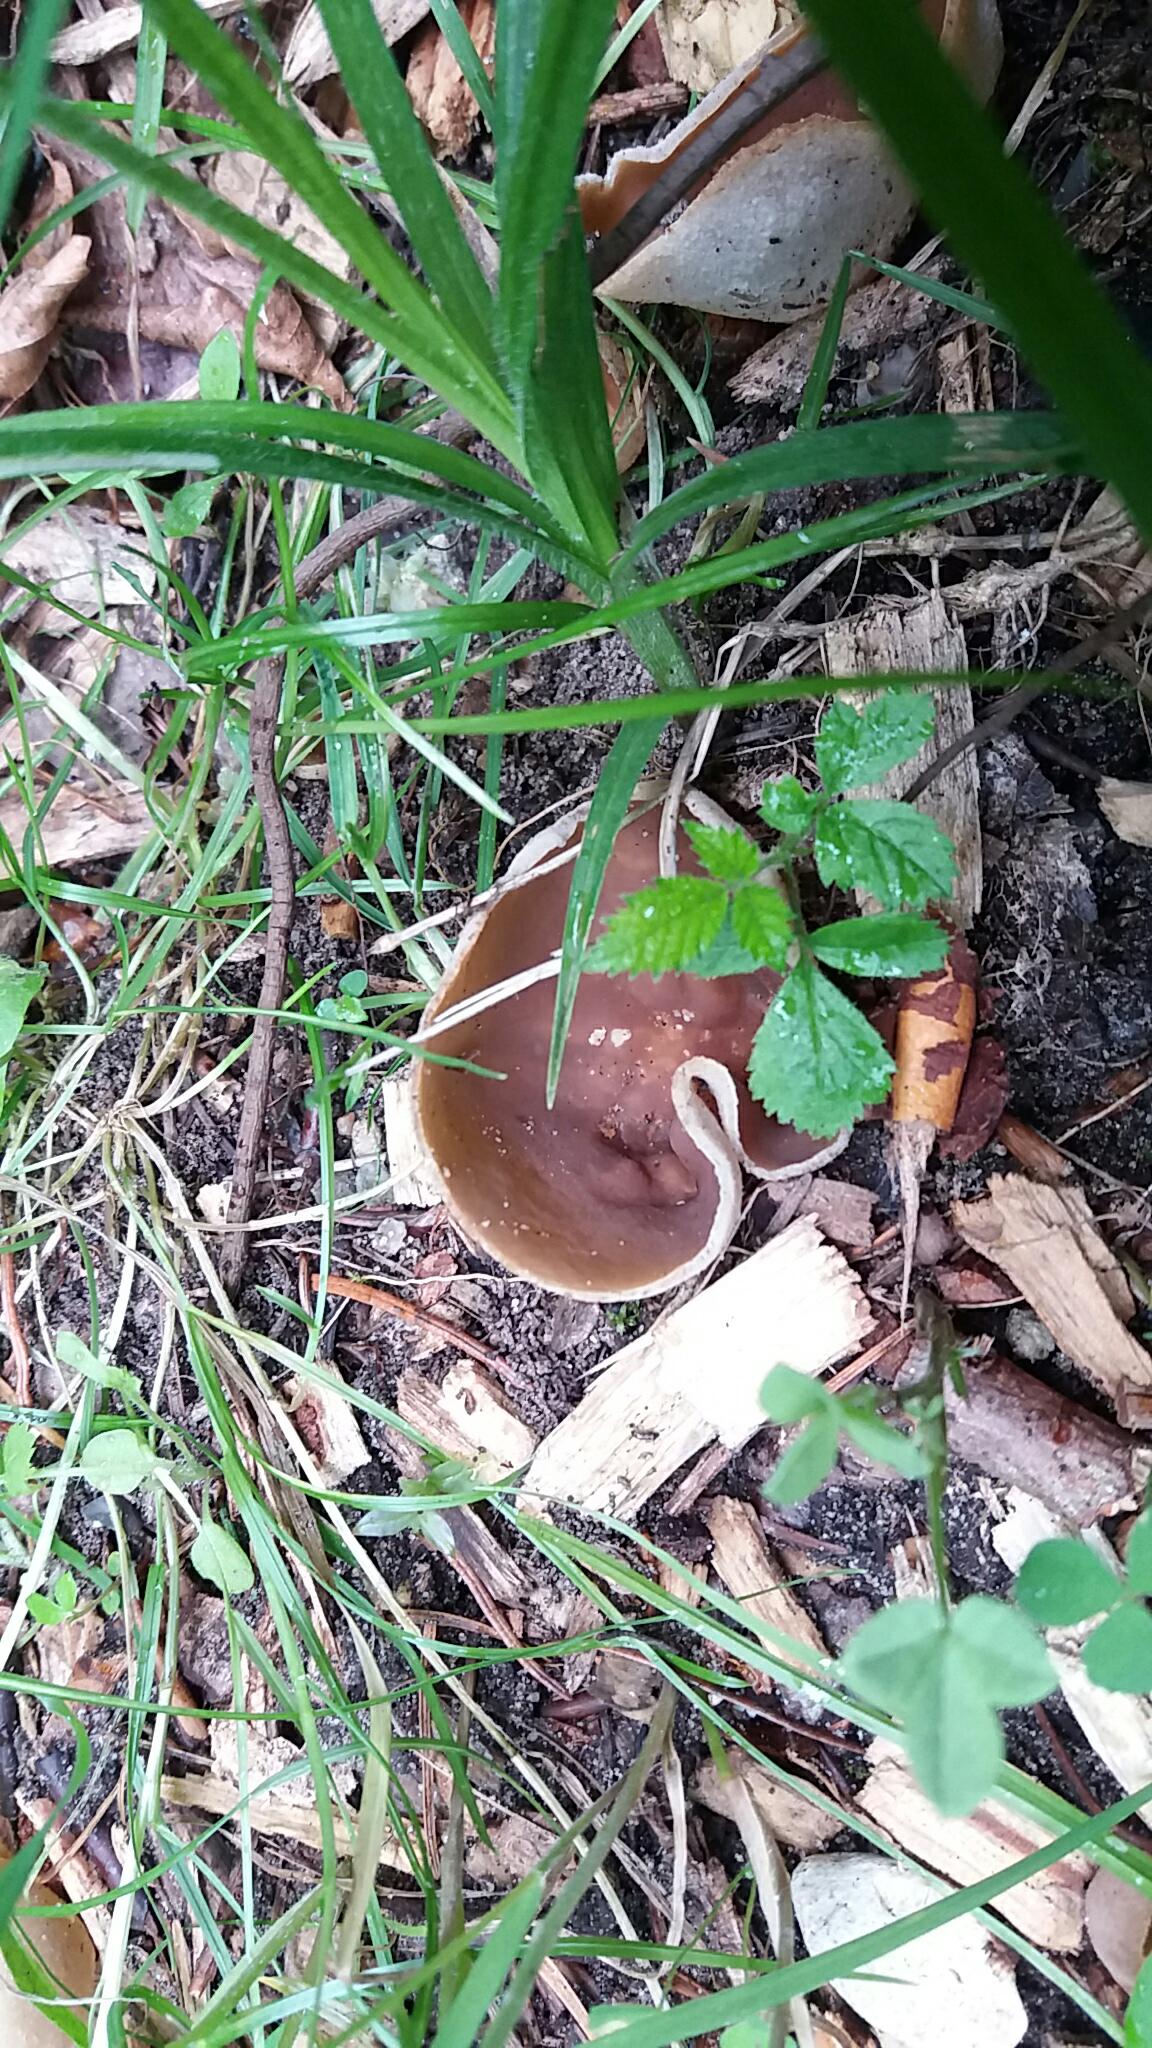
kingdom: Fungi
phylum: Ascomycota
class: Pezizomycetes
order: Pezizales
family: Pezizaceae
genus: Peziza
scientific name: Peziza arvernensis
